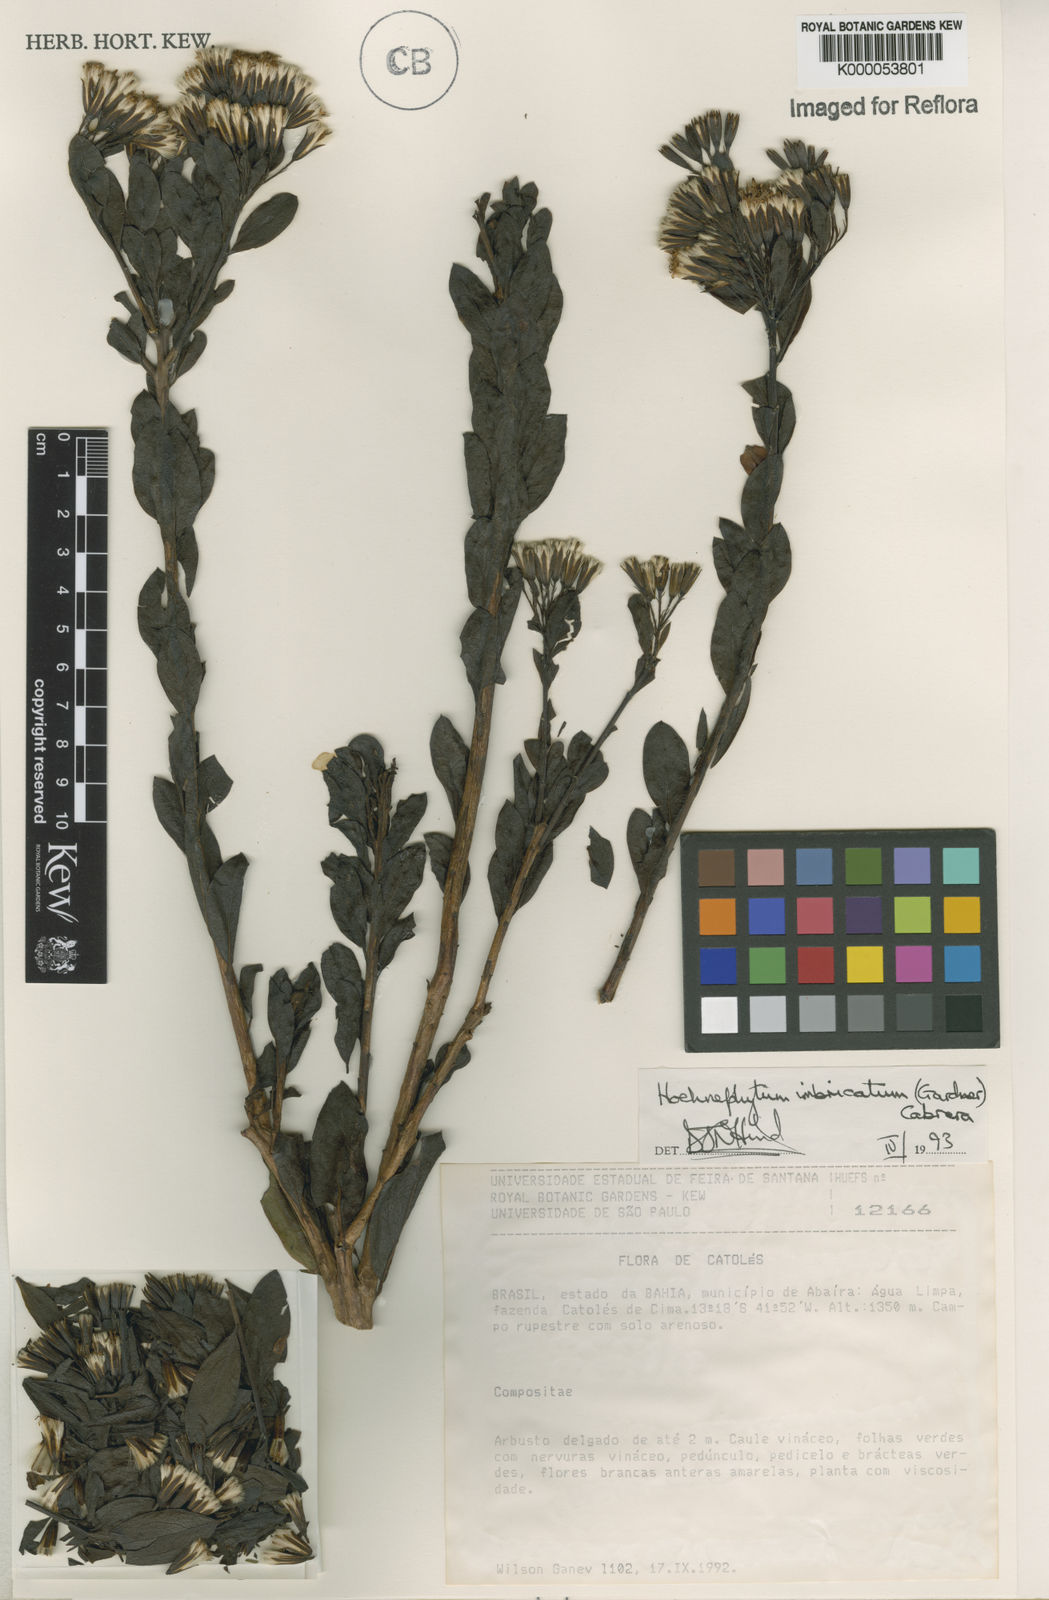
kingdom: Plantae
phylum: Tracheophyta
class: Magnoliopsida
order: Asterales
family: Asteraceae
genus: Hoehnephytum
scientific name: Hoehnephytum imbricatum
